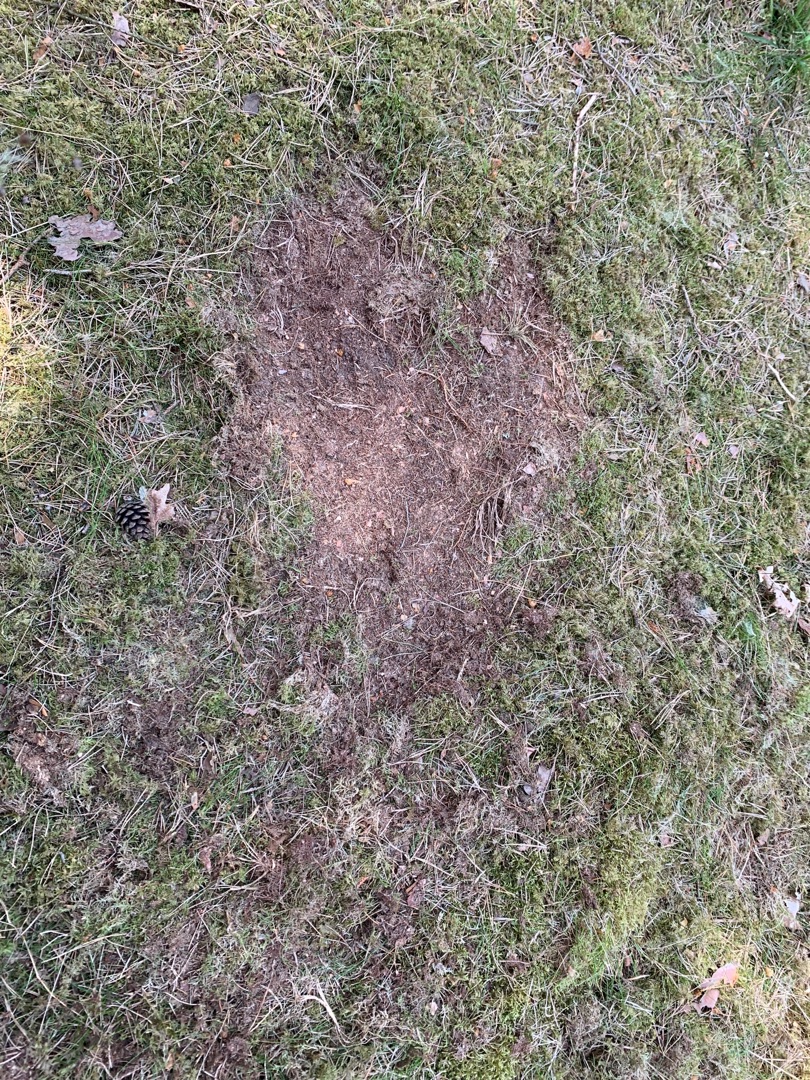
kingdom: Animalia
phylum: Chordata
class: Mammalia
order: Artiodactyla
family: Cervidae
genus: Capreolus
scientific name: Capreolus capreolus
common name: Rådyr
